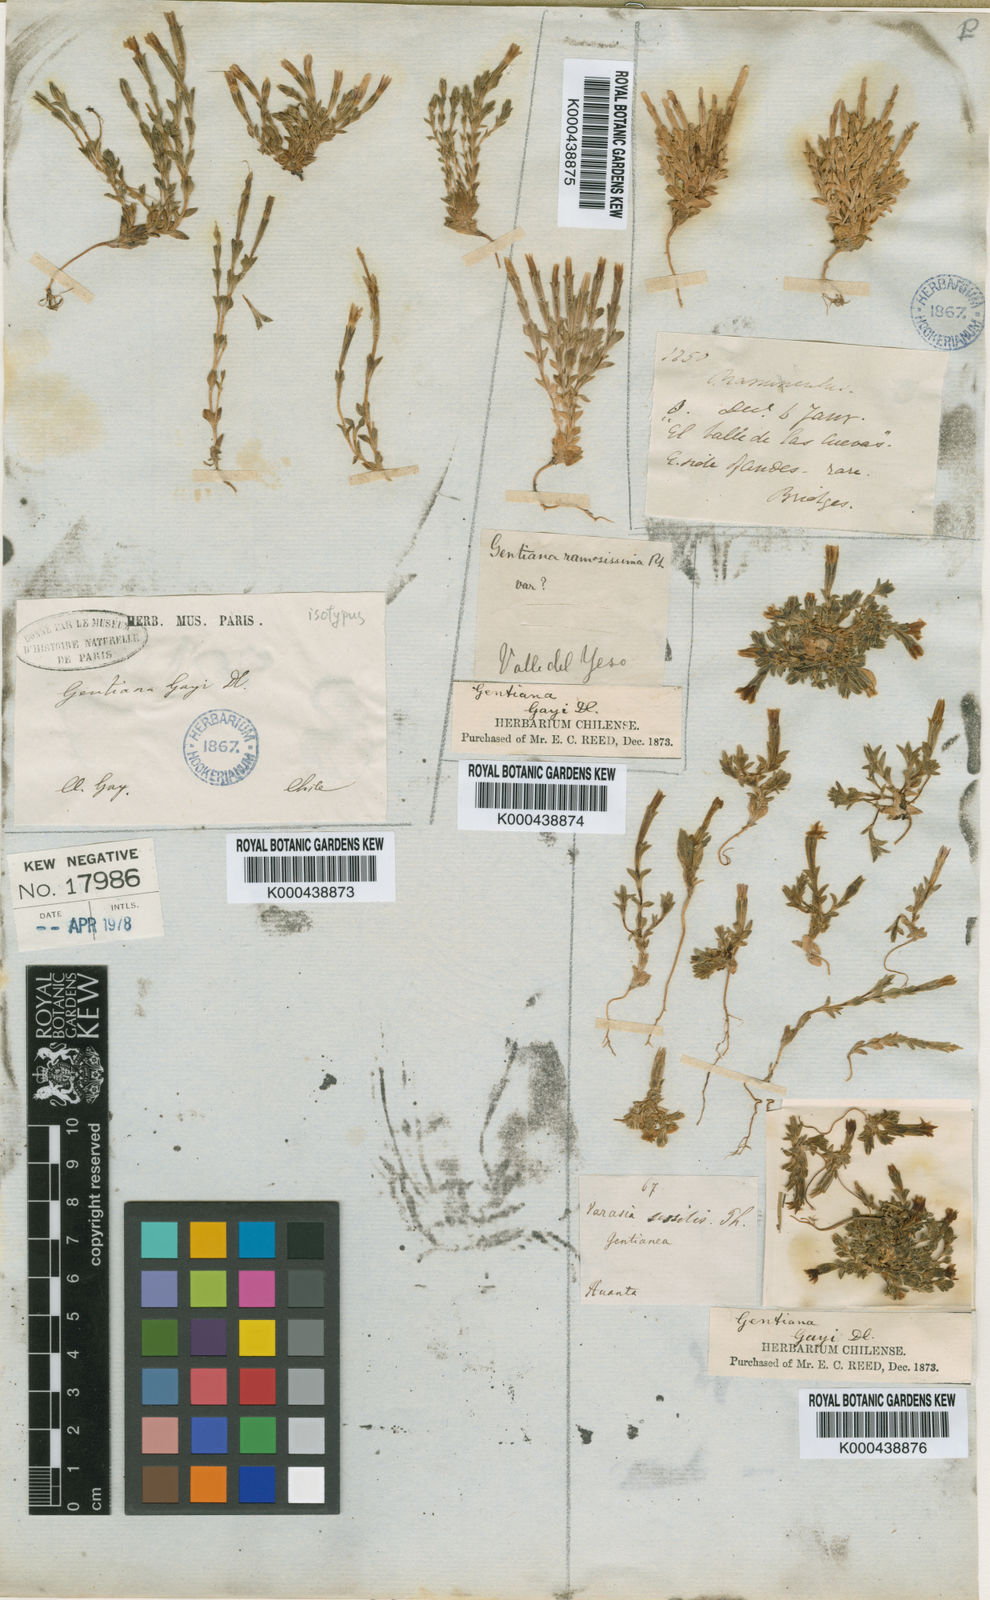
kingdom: Plantae
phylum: Tracheophyta
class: Magnoliopsida
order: Gentianales
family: Gentianaceae
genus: Gentiana
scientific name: Gentiana prostrata
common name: Moss gentian
